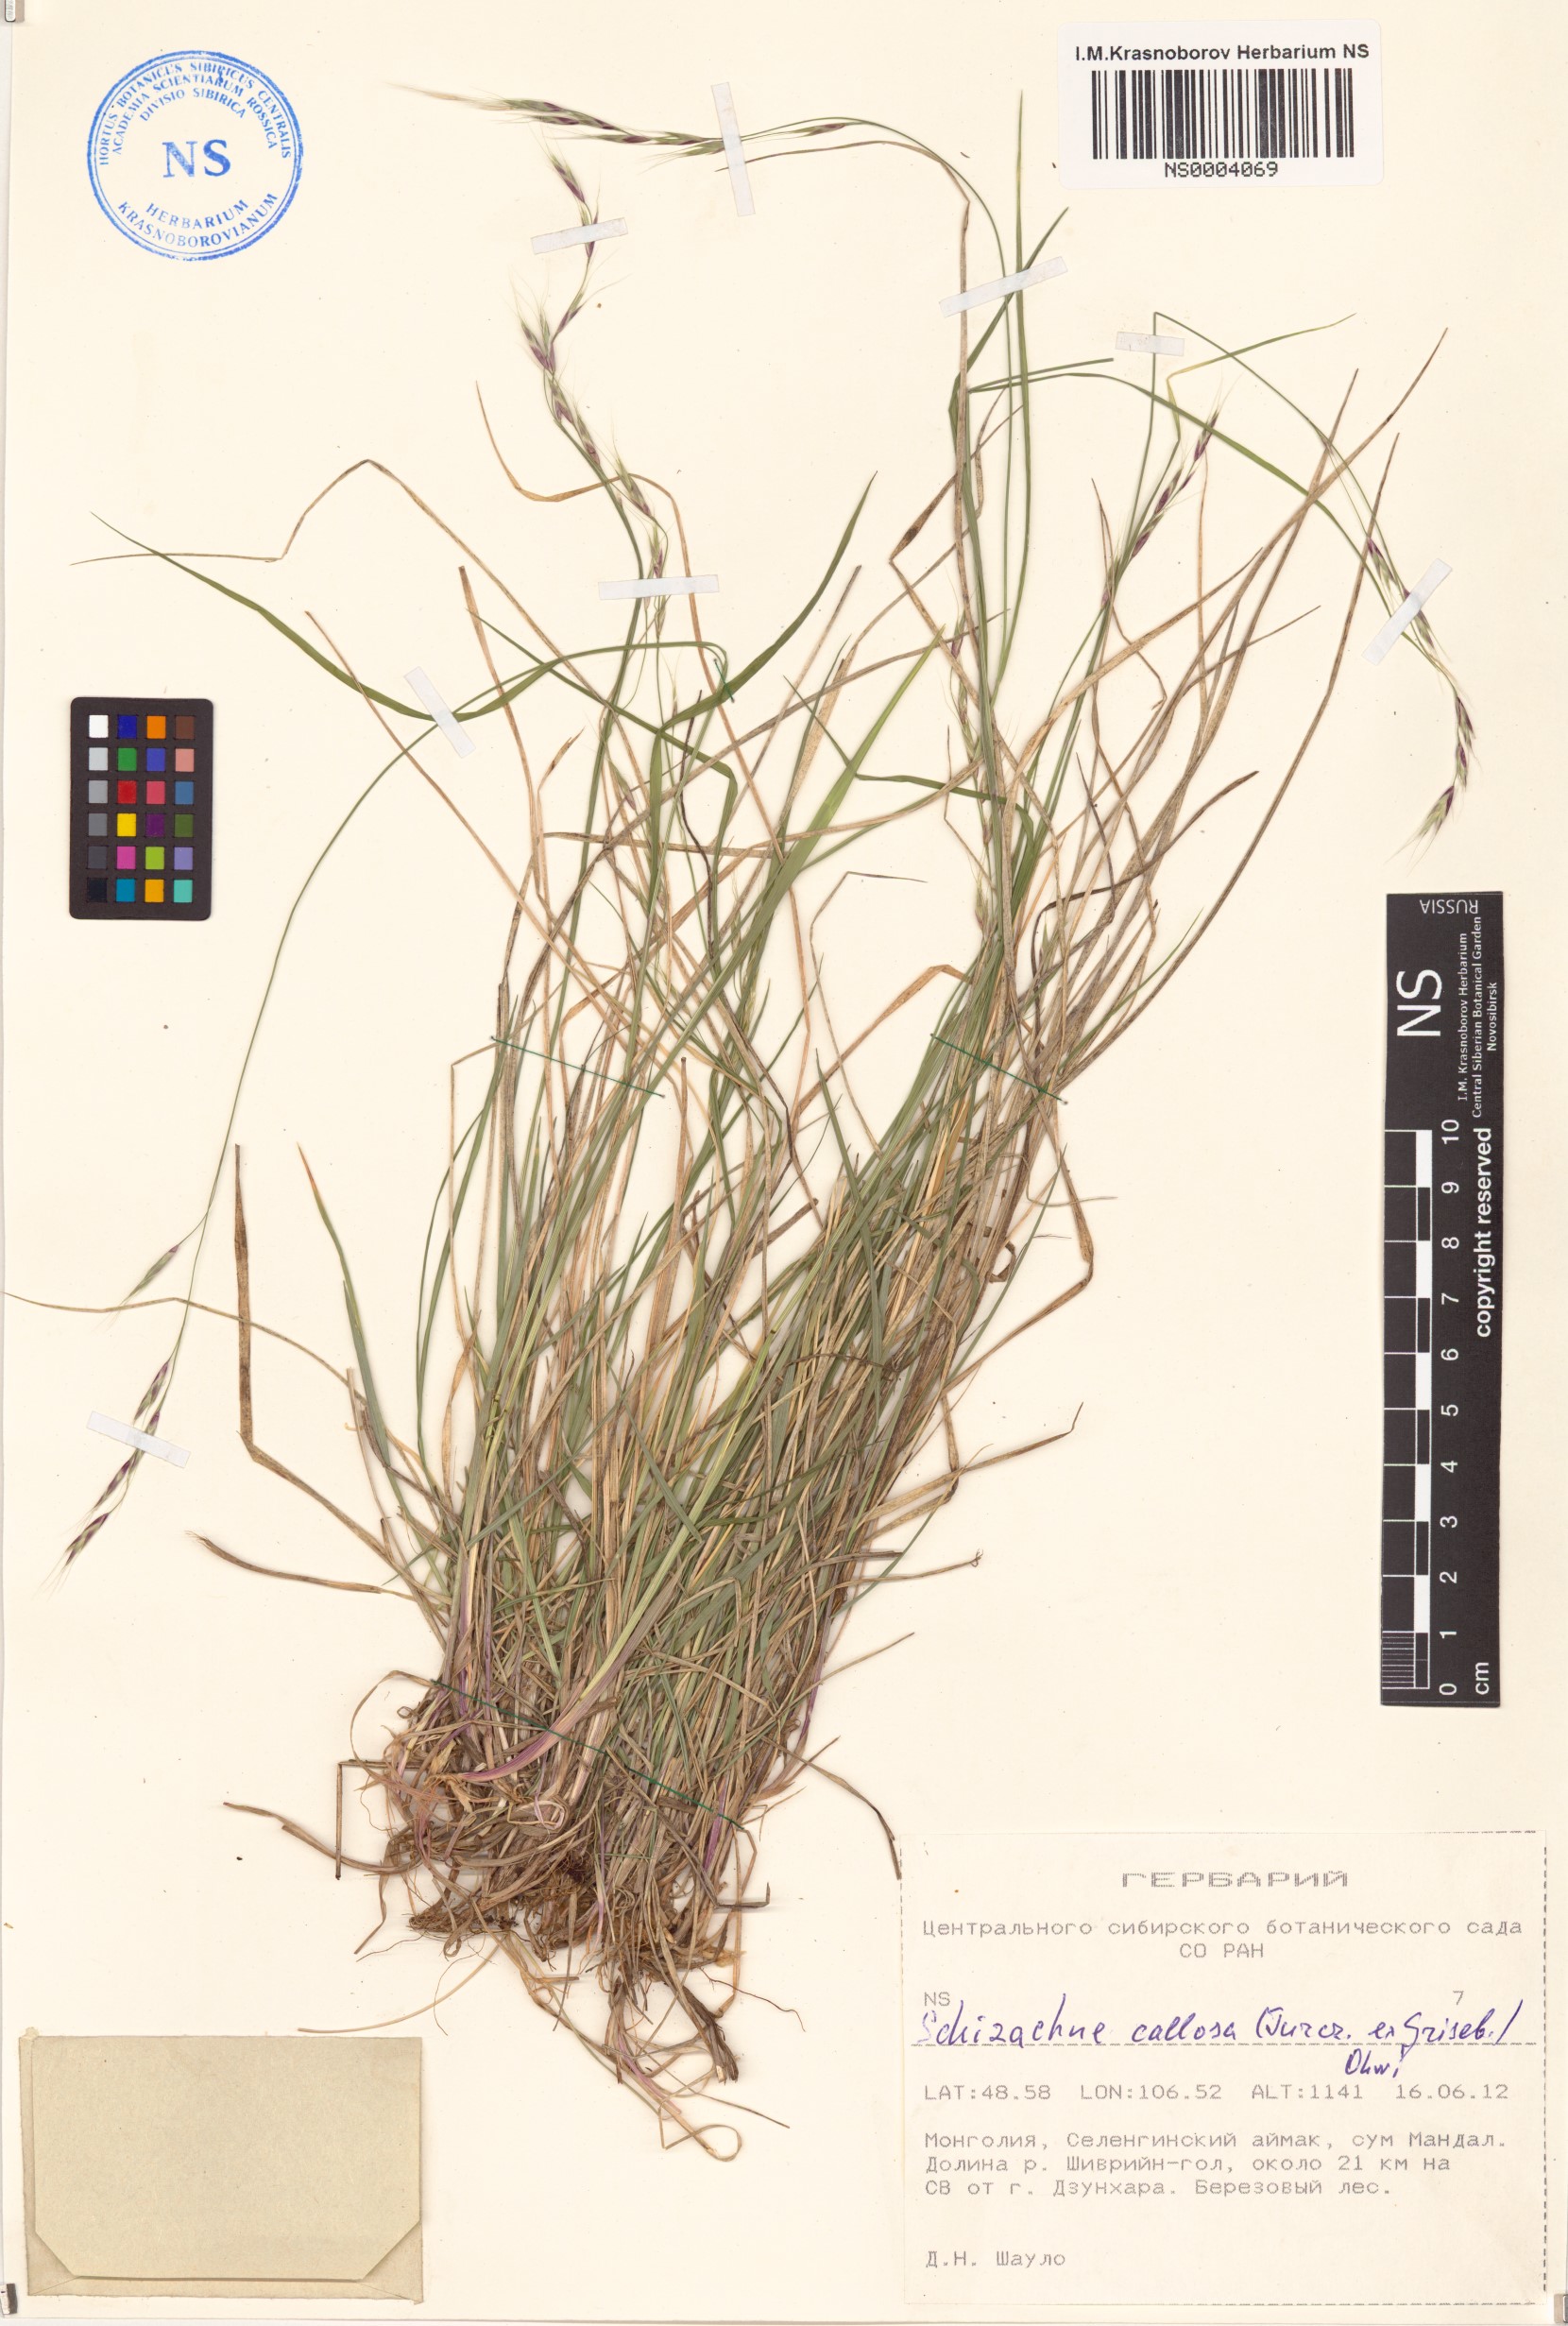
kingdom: Plantae
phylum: Tracheophyta
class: Liliopsida
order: Poales
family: Poaceae
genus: Schizachne
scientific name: Schizachne purpurascens
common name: False melic
